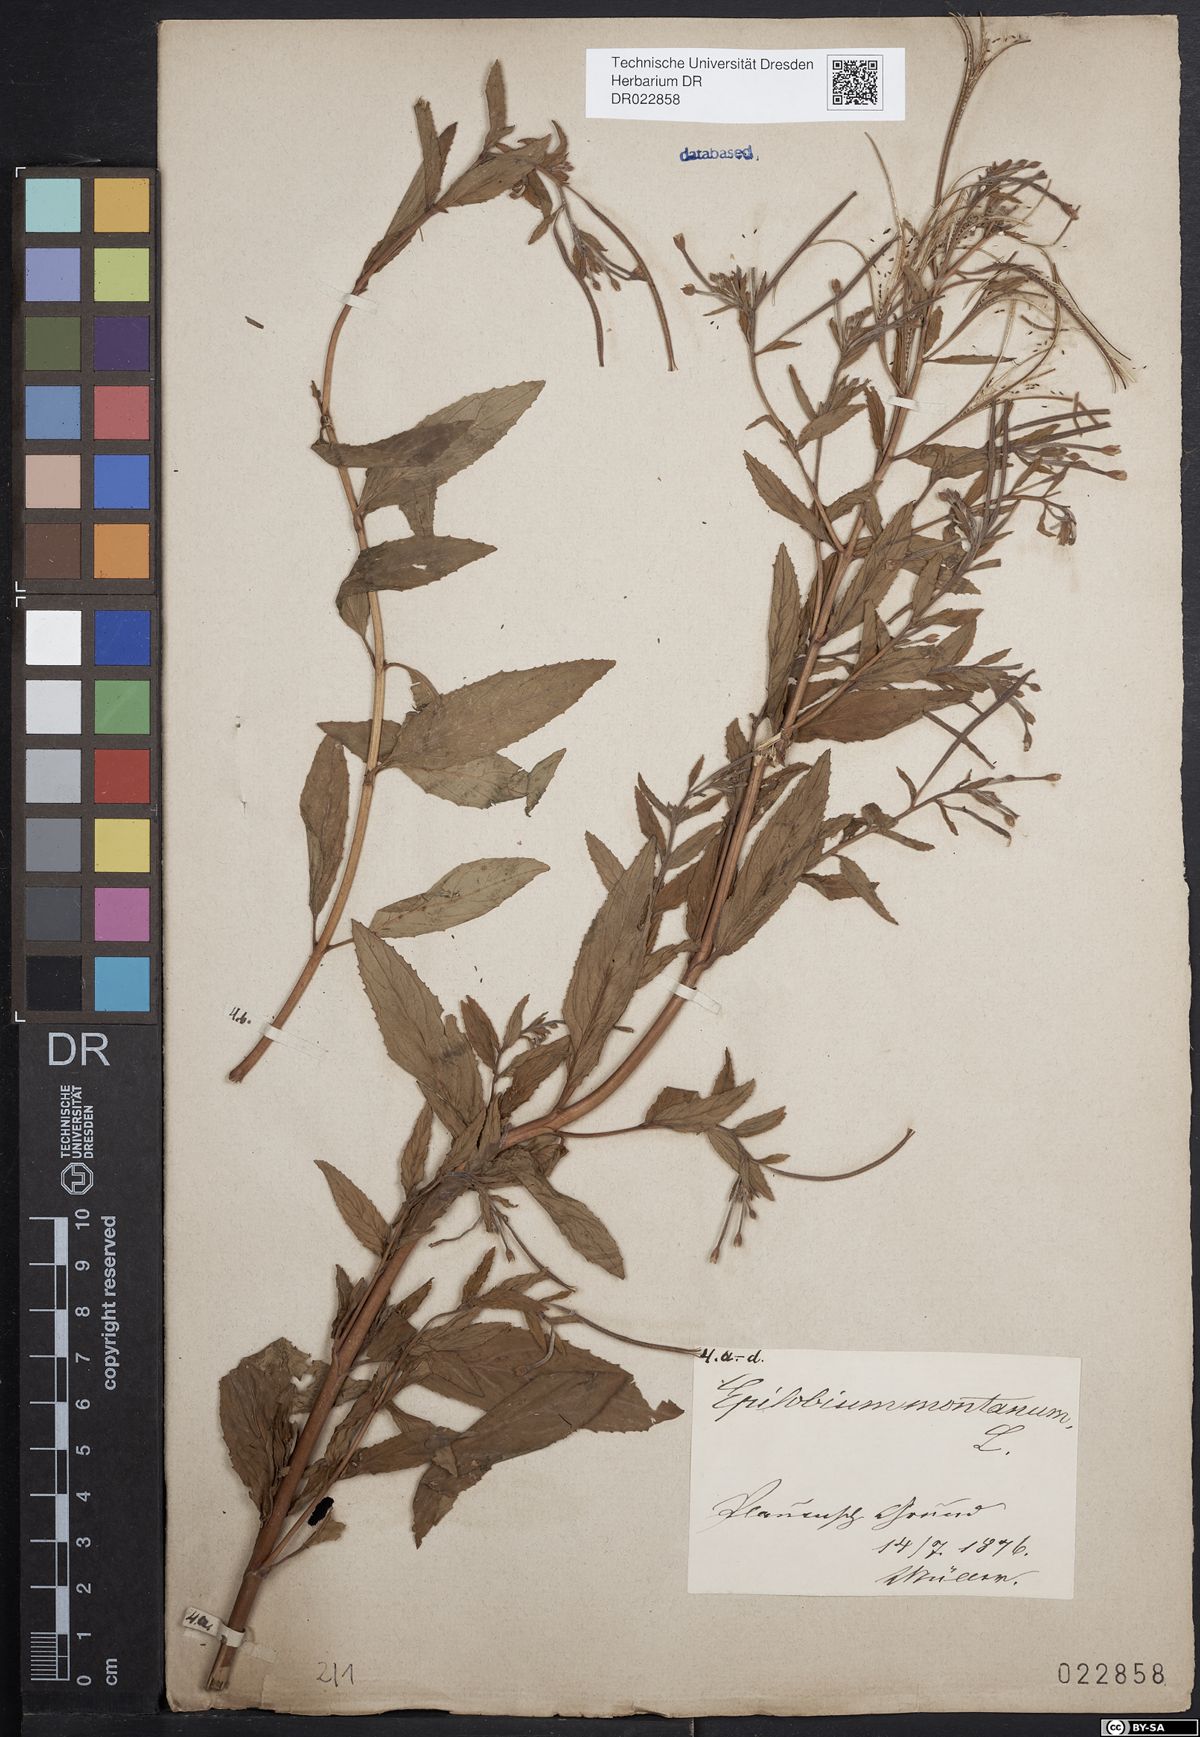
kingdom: Plantae
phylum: Tracheophyta
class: Magnoliopsida
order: Myrtales
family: Onagraceae
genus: Epilobium
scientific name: Epilobium montanum
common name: Broad-leaved willowherb
